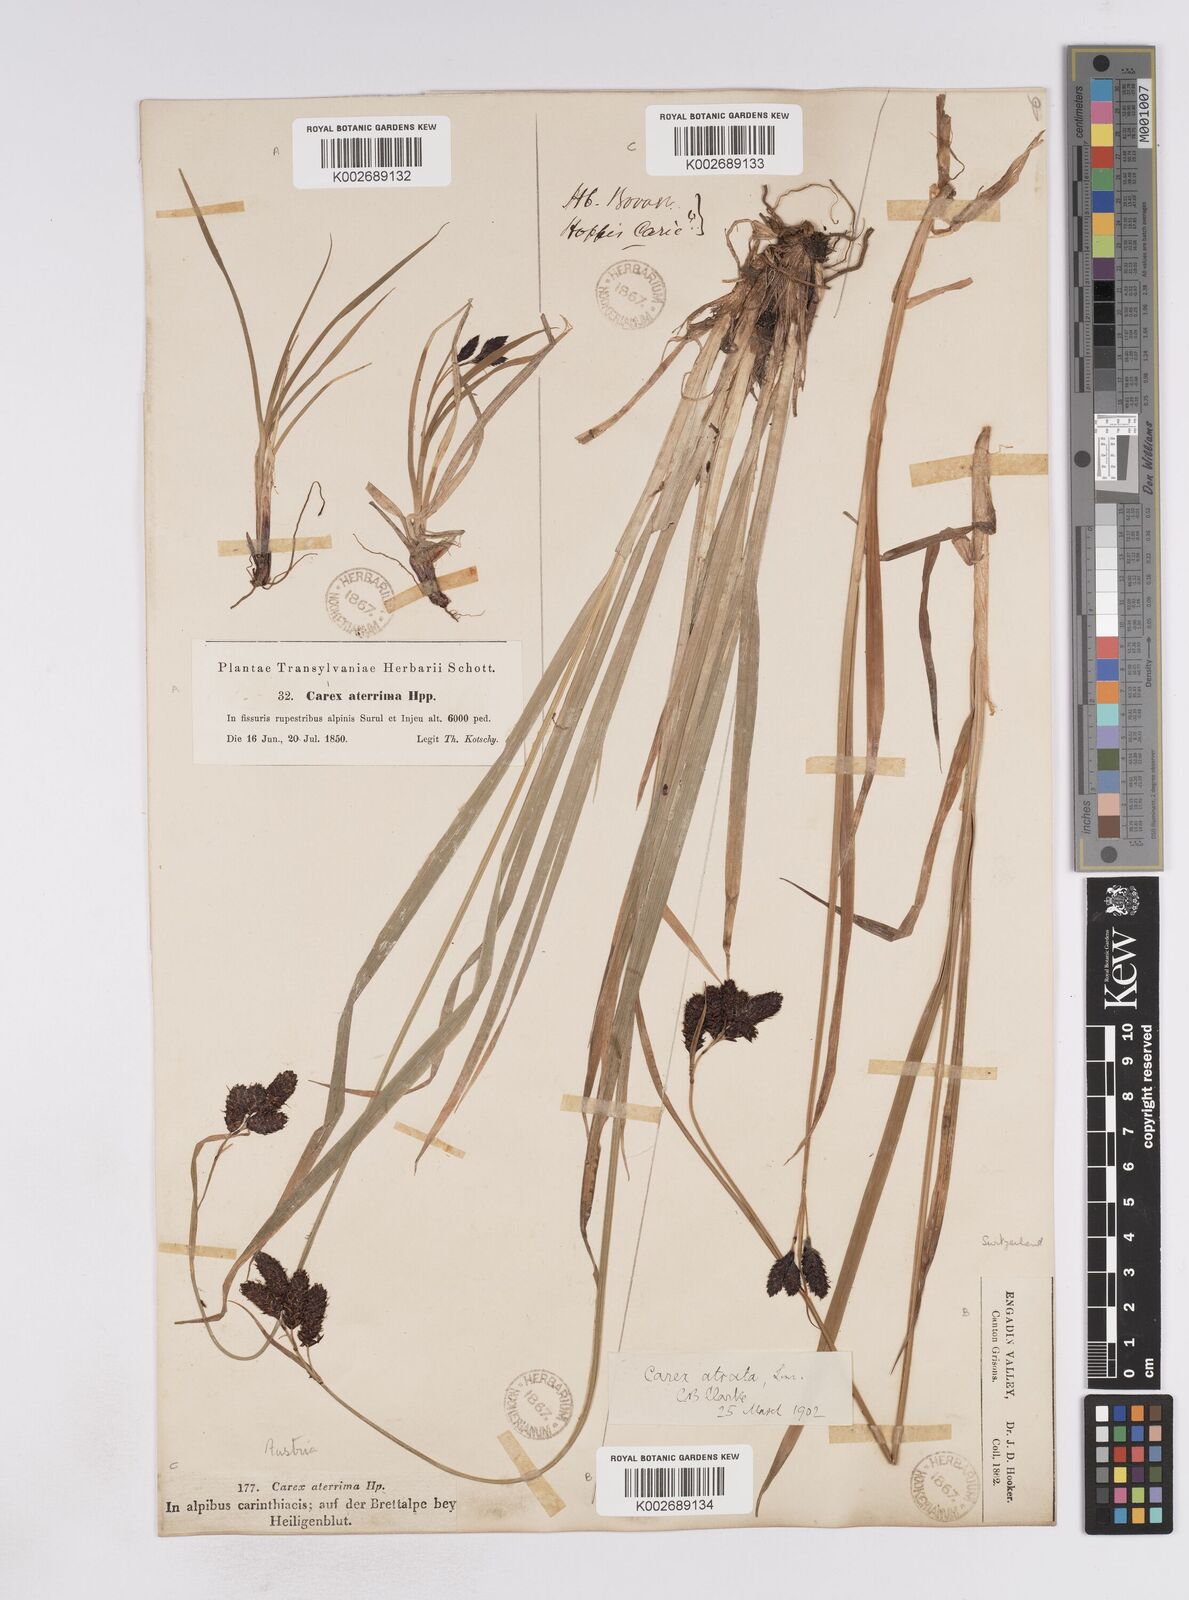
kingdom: Plantae
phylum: Tracheophyta
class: Liliopsida
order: Poales
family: Cyperaceae
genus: Carex
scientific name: Carex aterrima
